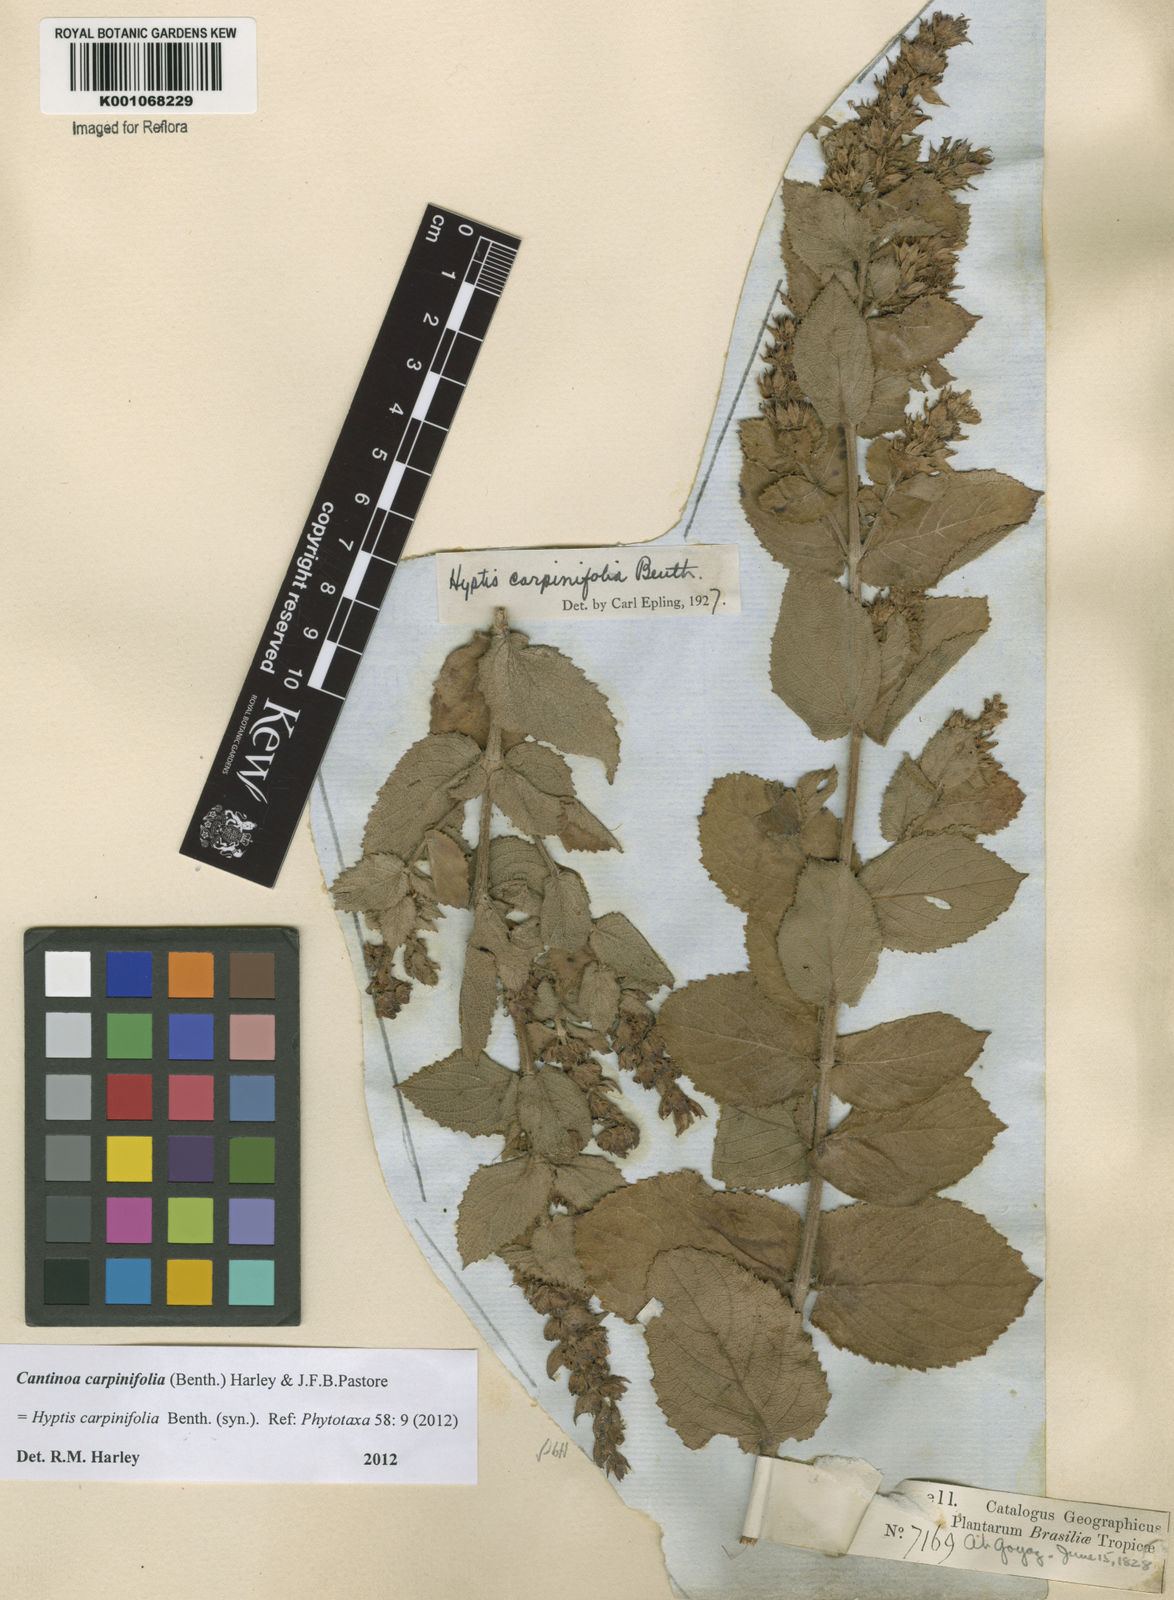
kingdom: Plantae
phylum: Tracheophyta
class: Magnoliopsida
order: Lamiales
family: Lamiaceae
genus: Cantinoa
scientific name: Cantinoa carpinifolia
